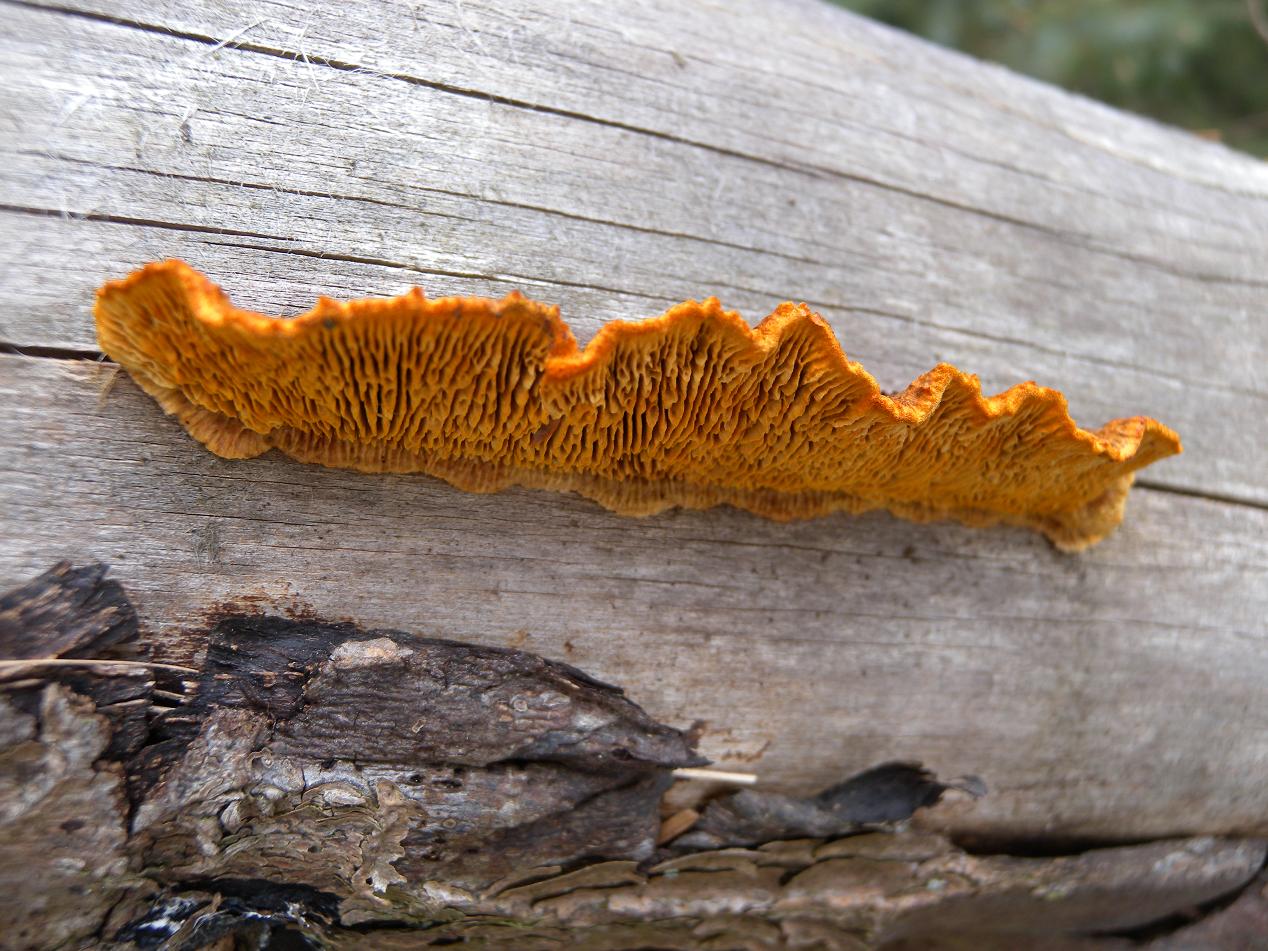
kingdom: Fungi
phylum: Basidiomycota
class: Agaricomycetes
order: Gloeophyllales
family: Gloeophyllaceae
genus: Gloeophyllum
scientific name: Gloeophyllum sepiarium
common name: fyrre-korkhat
